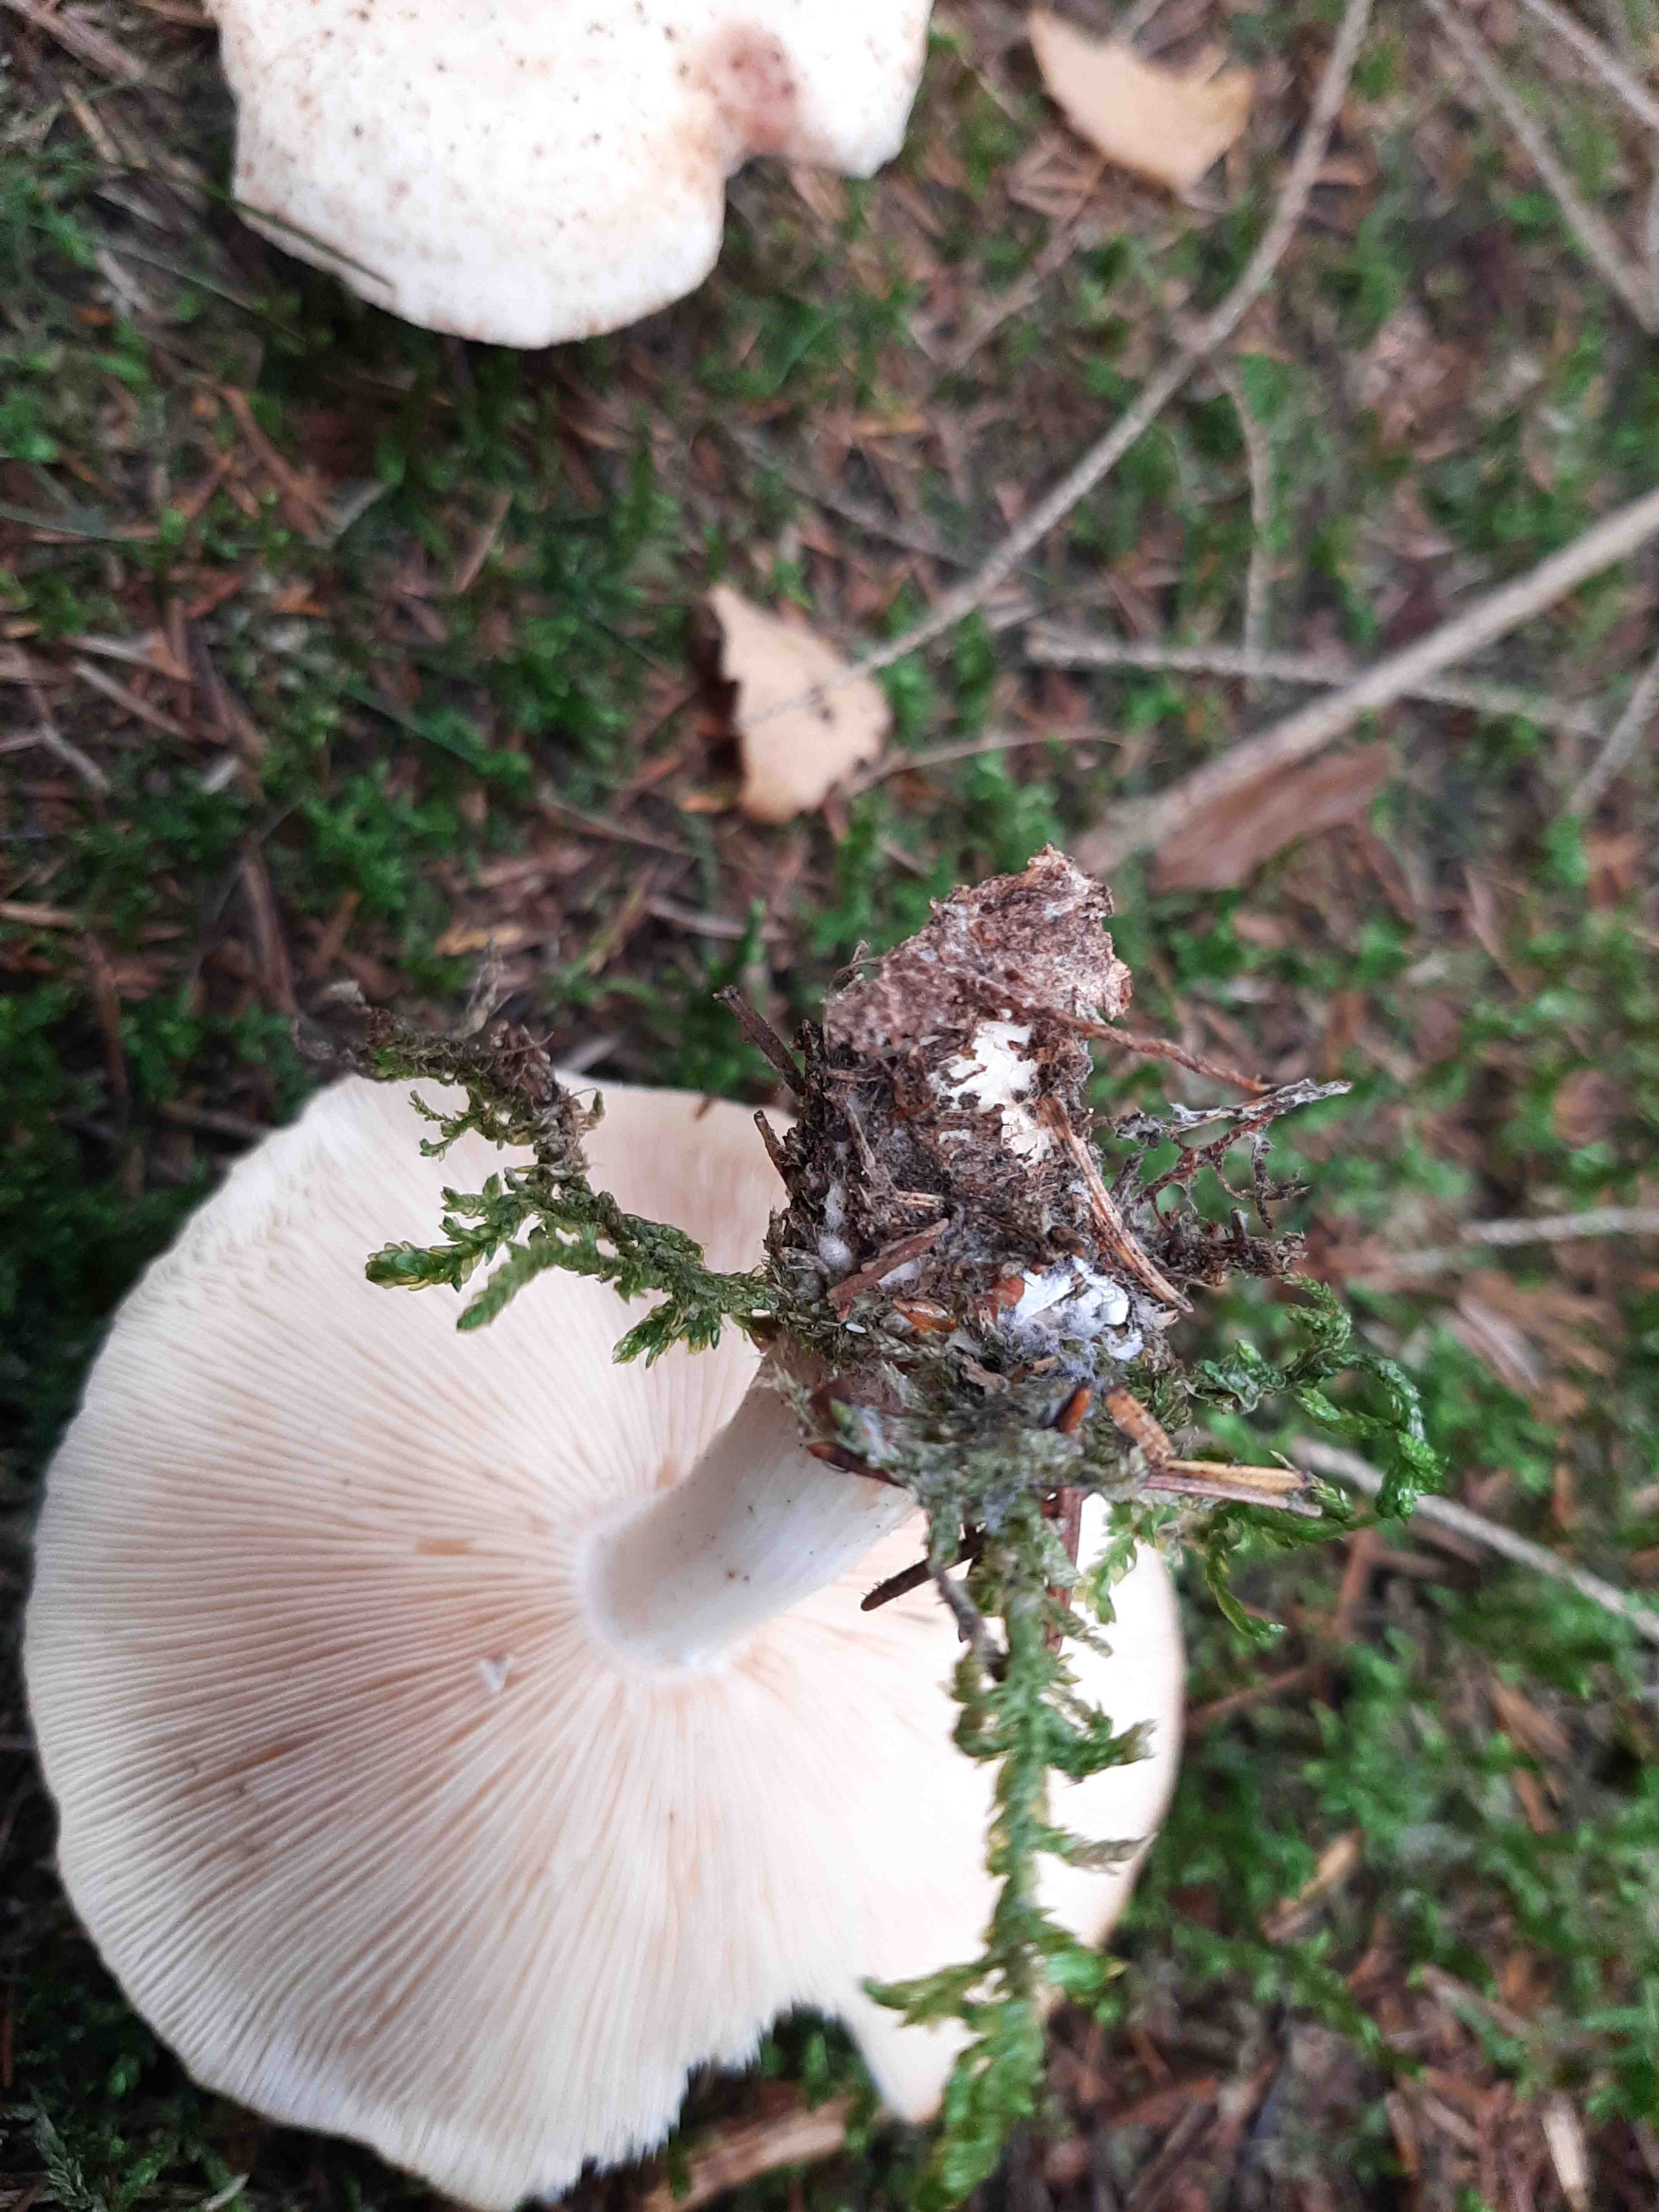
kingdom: Fungi
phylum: Basidiomycota
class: Agaricomycetes
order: Agaricales
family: Omphalotaceae
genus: Rhodocollybia
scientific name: Rhodocollybia maculata
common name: plettet fladhat
